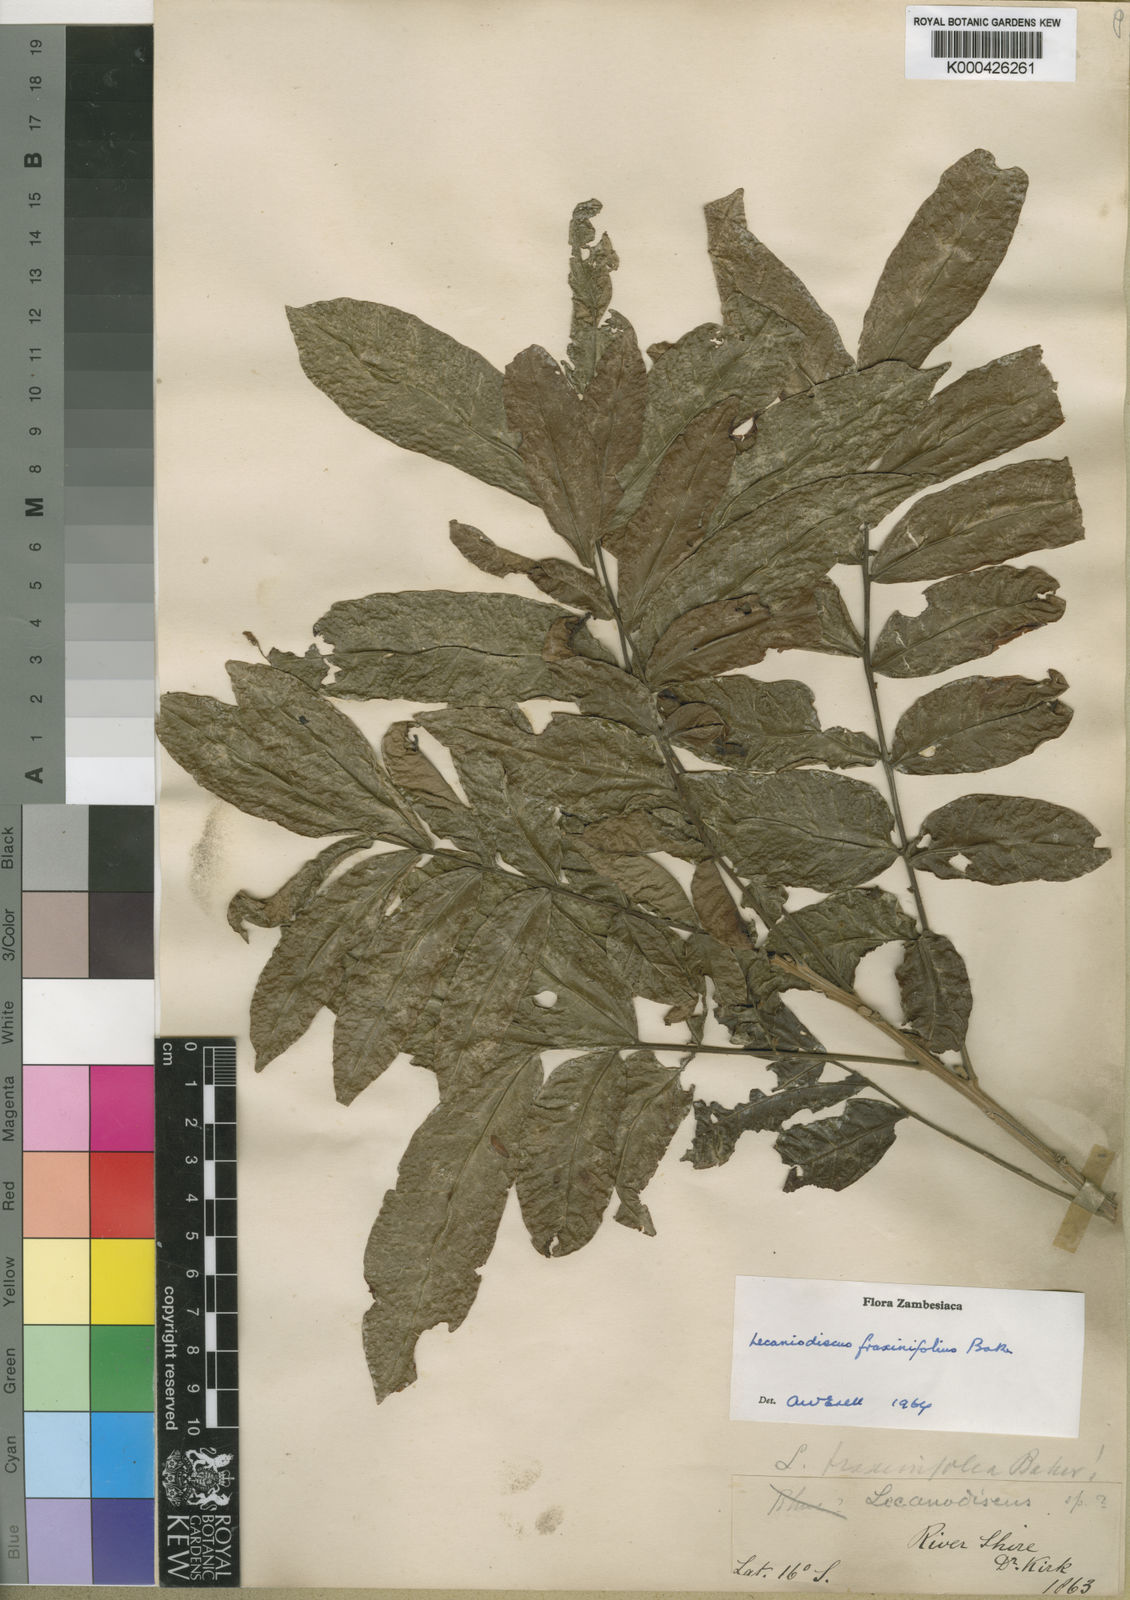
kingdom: Plantae
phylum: Tracheophyta
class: Magnoliopsida
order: Sapindales
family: Sapindaceae
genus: Lecaniodiscus
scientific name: Lecaniodiscus fraxinifolius
